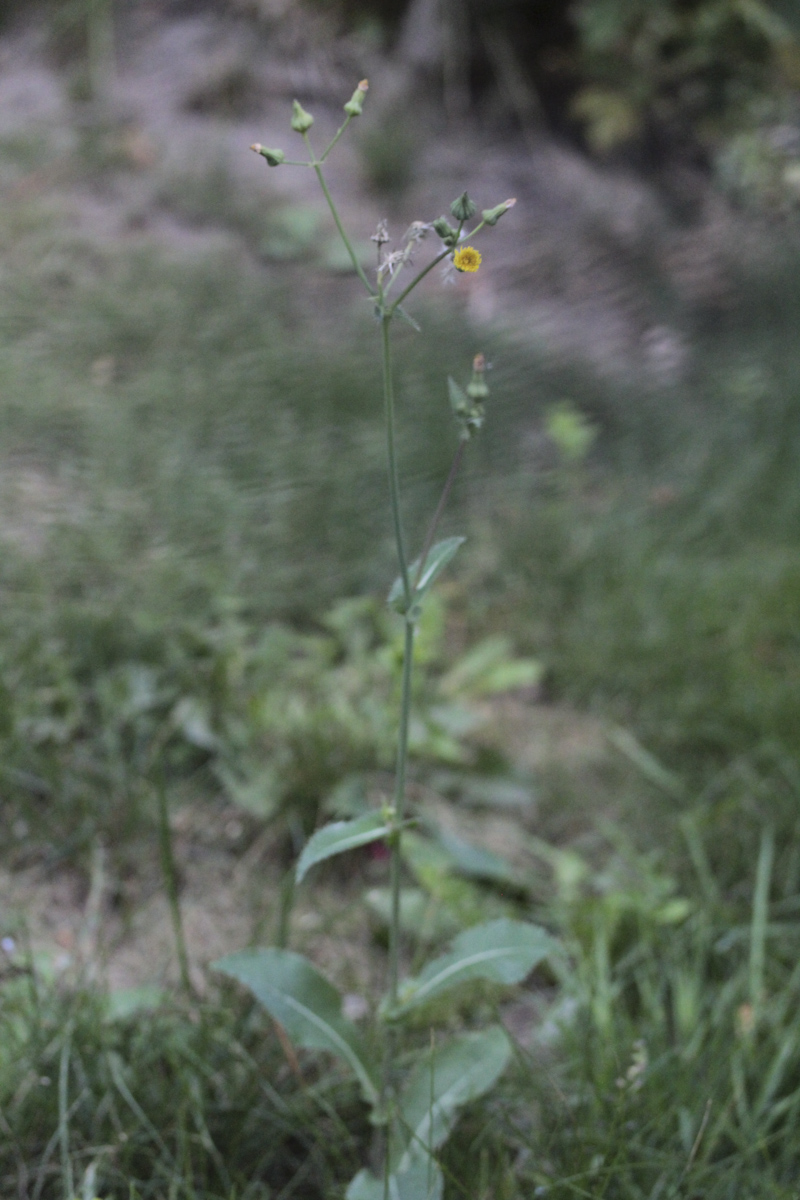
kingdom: Plantae
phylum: Tracheophyta
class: Magnoliopsida
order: Asterales
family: Asteraceae
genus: Sonchus
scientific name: Sonchus arvensis
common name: Perennial sow-thistle
